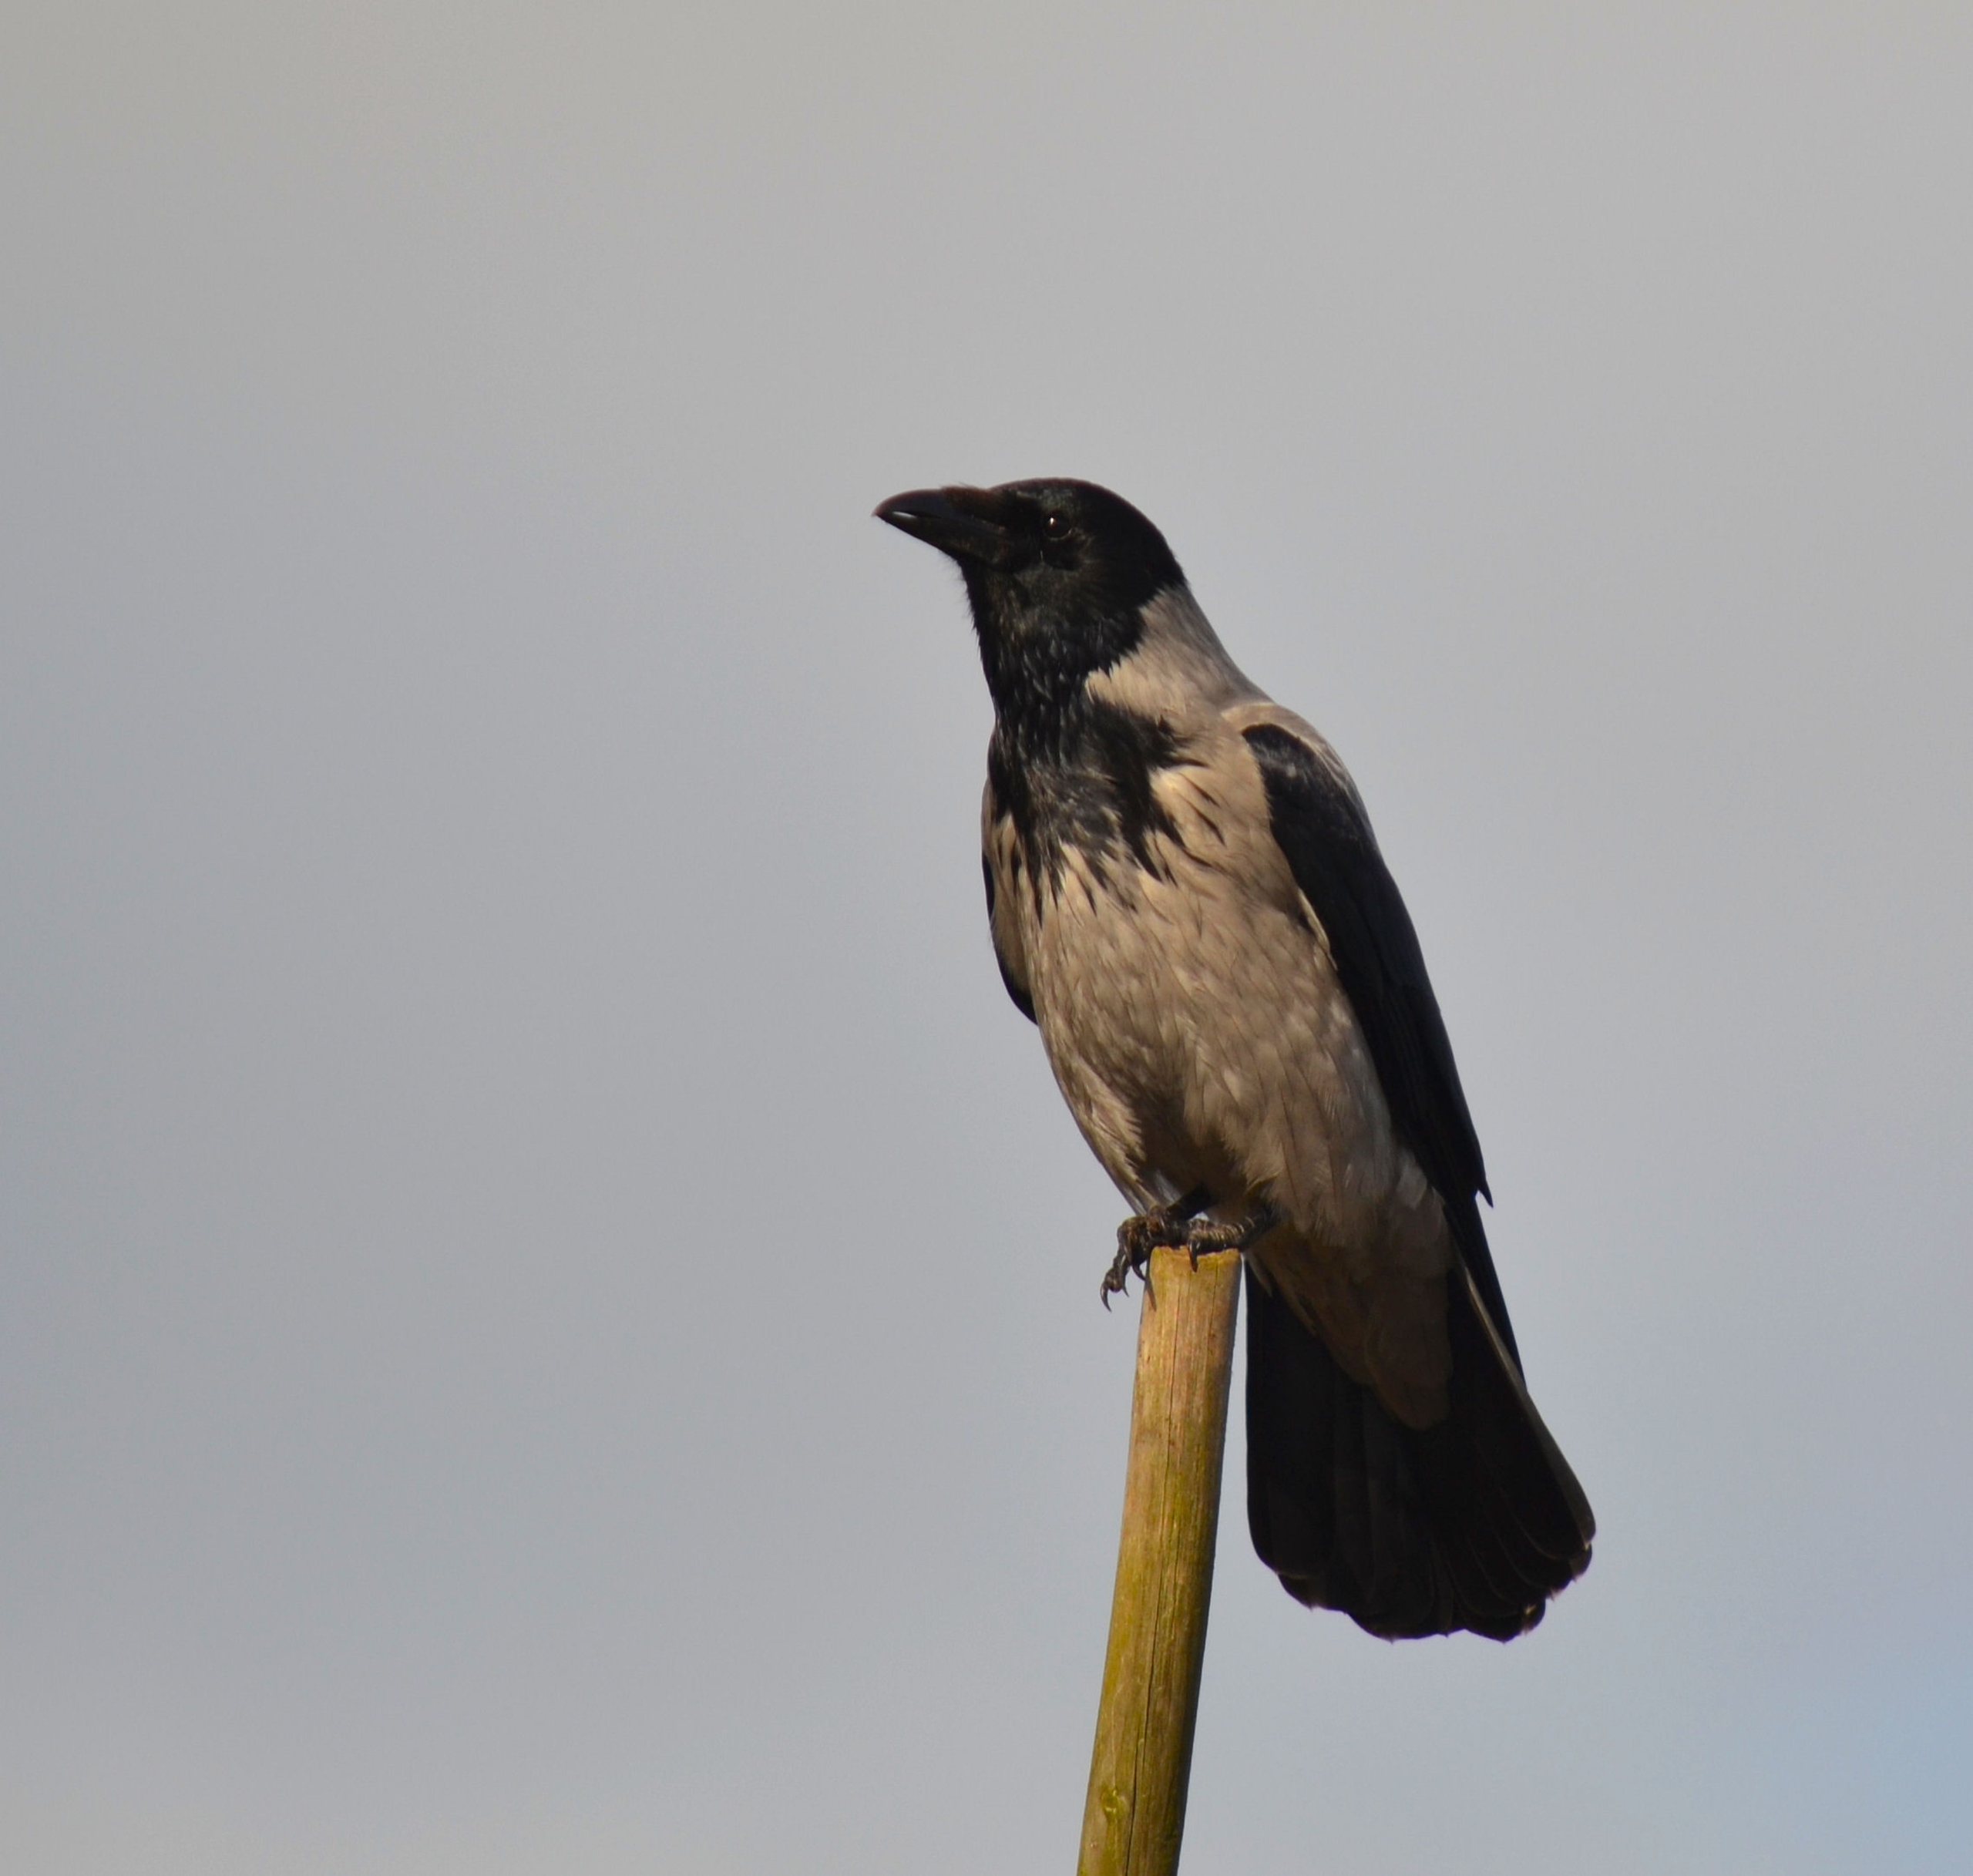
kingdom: Animalia
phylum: Chordata
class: Aves
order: Passeriformes
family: Corvidae
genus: Corvus
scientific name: Corvus cornix
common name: Gråkrage
